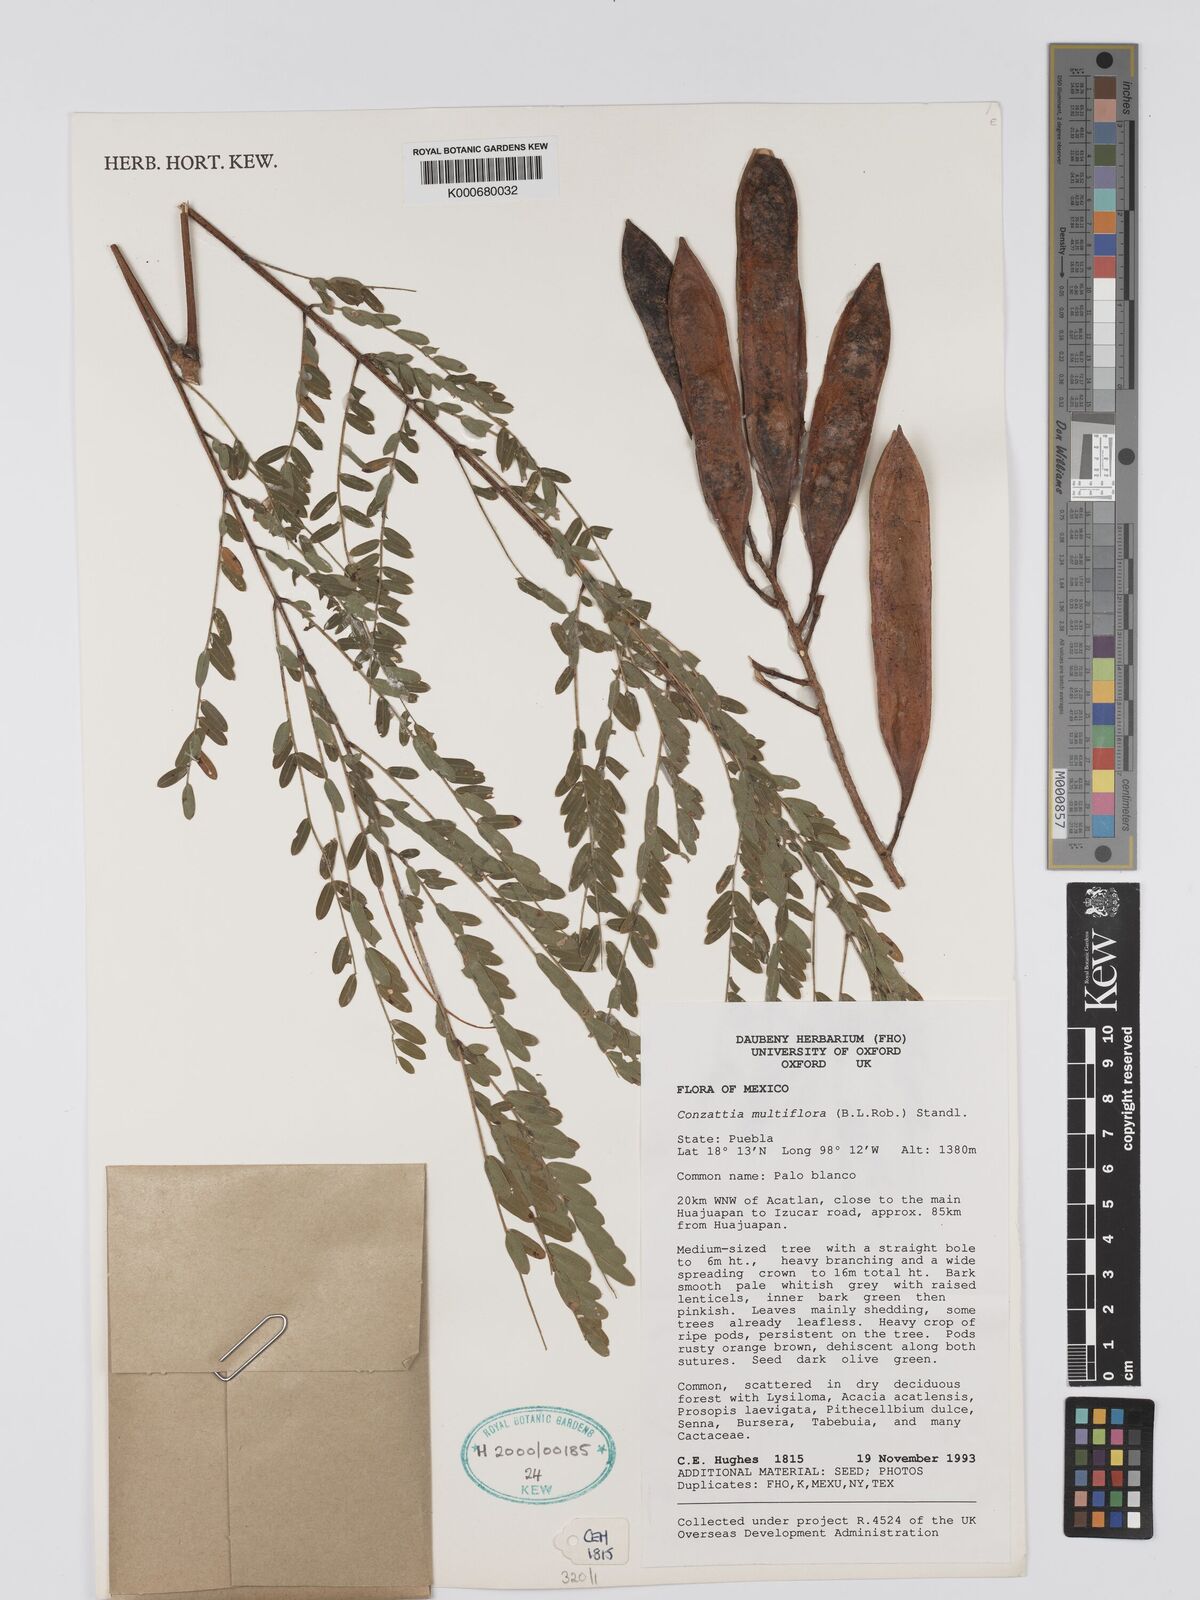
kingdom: Plantae
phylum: Tracheophyta
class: Magnoliopsida
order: Fabales
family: Fabaceae
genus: Conzattia
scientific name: Conzattia multiflora
